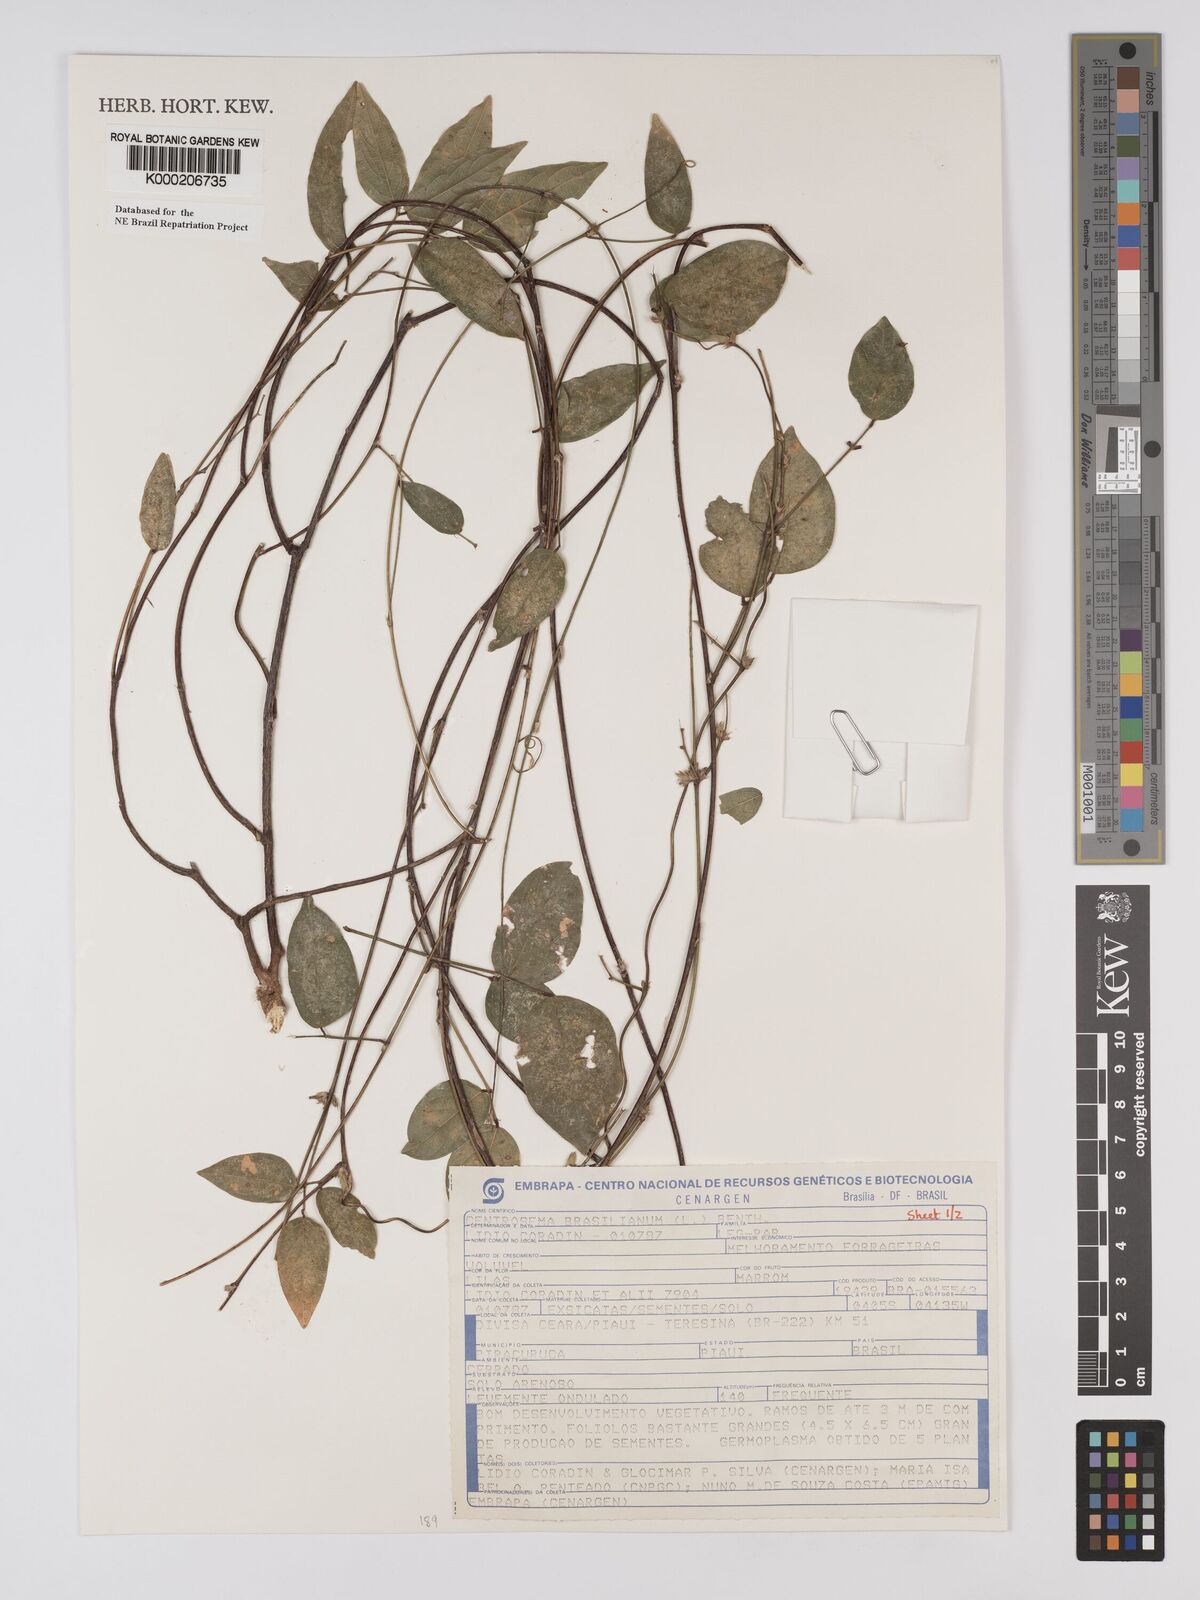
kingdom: Plantae
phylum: Tracheophyta
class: Magnoliopsida
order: Fabales
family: Fabaceae
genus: Centrosema
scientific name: Centrosema brasilianum
